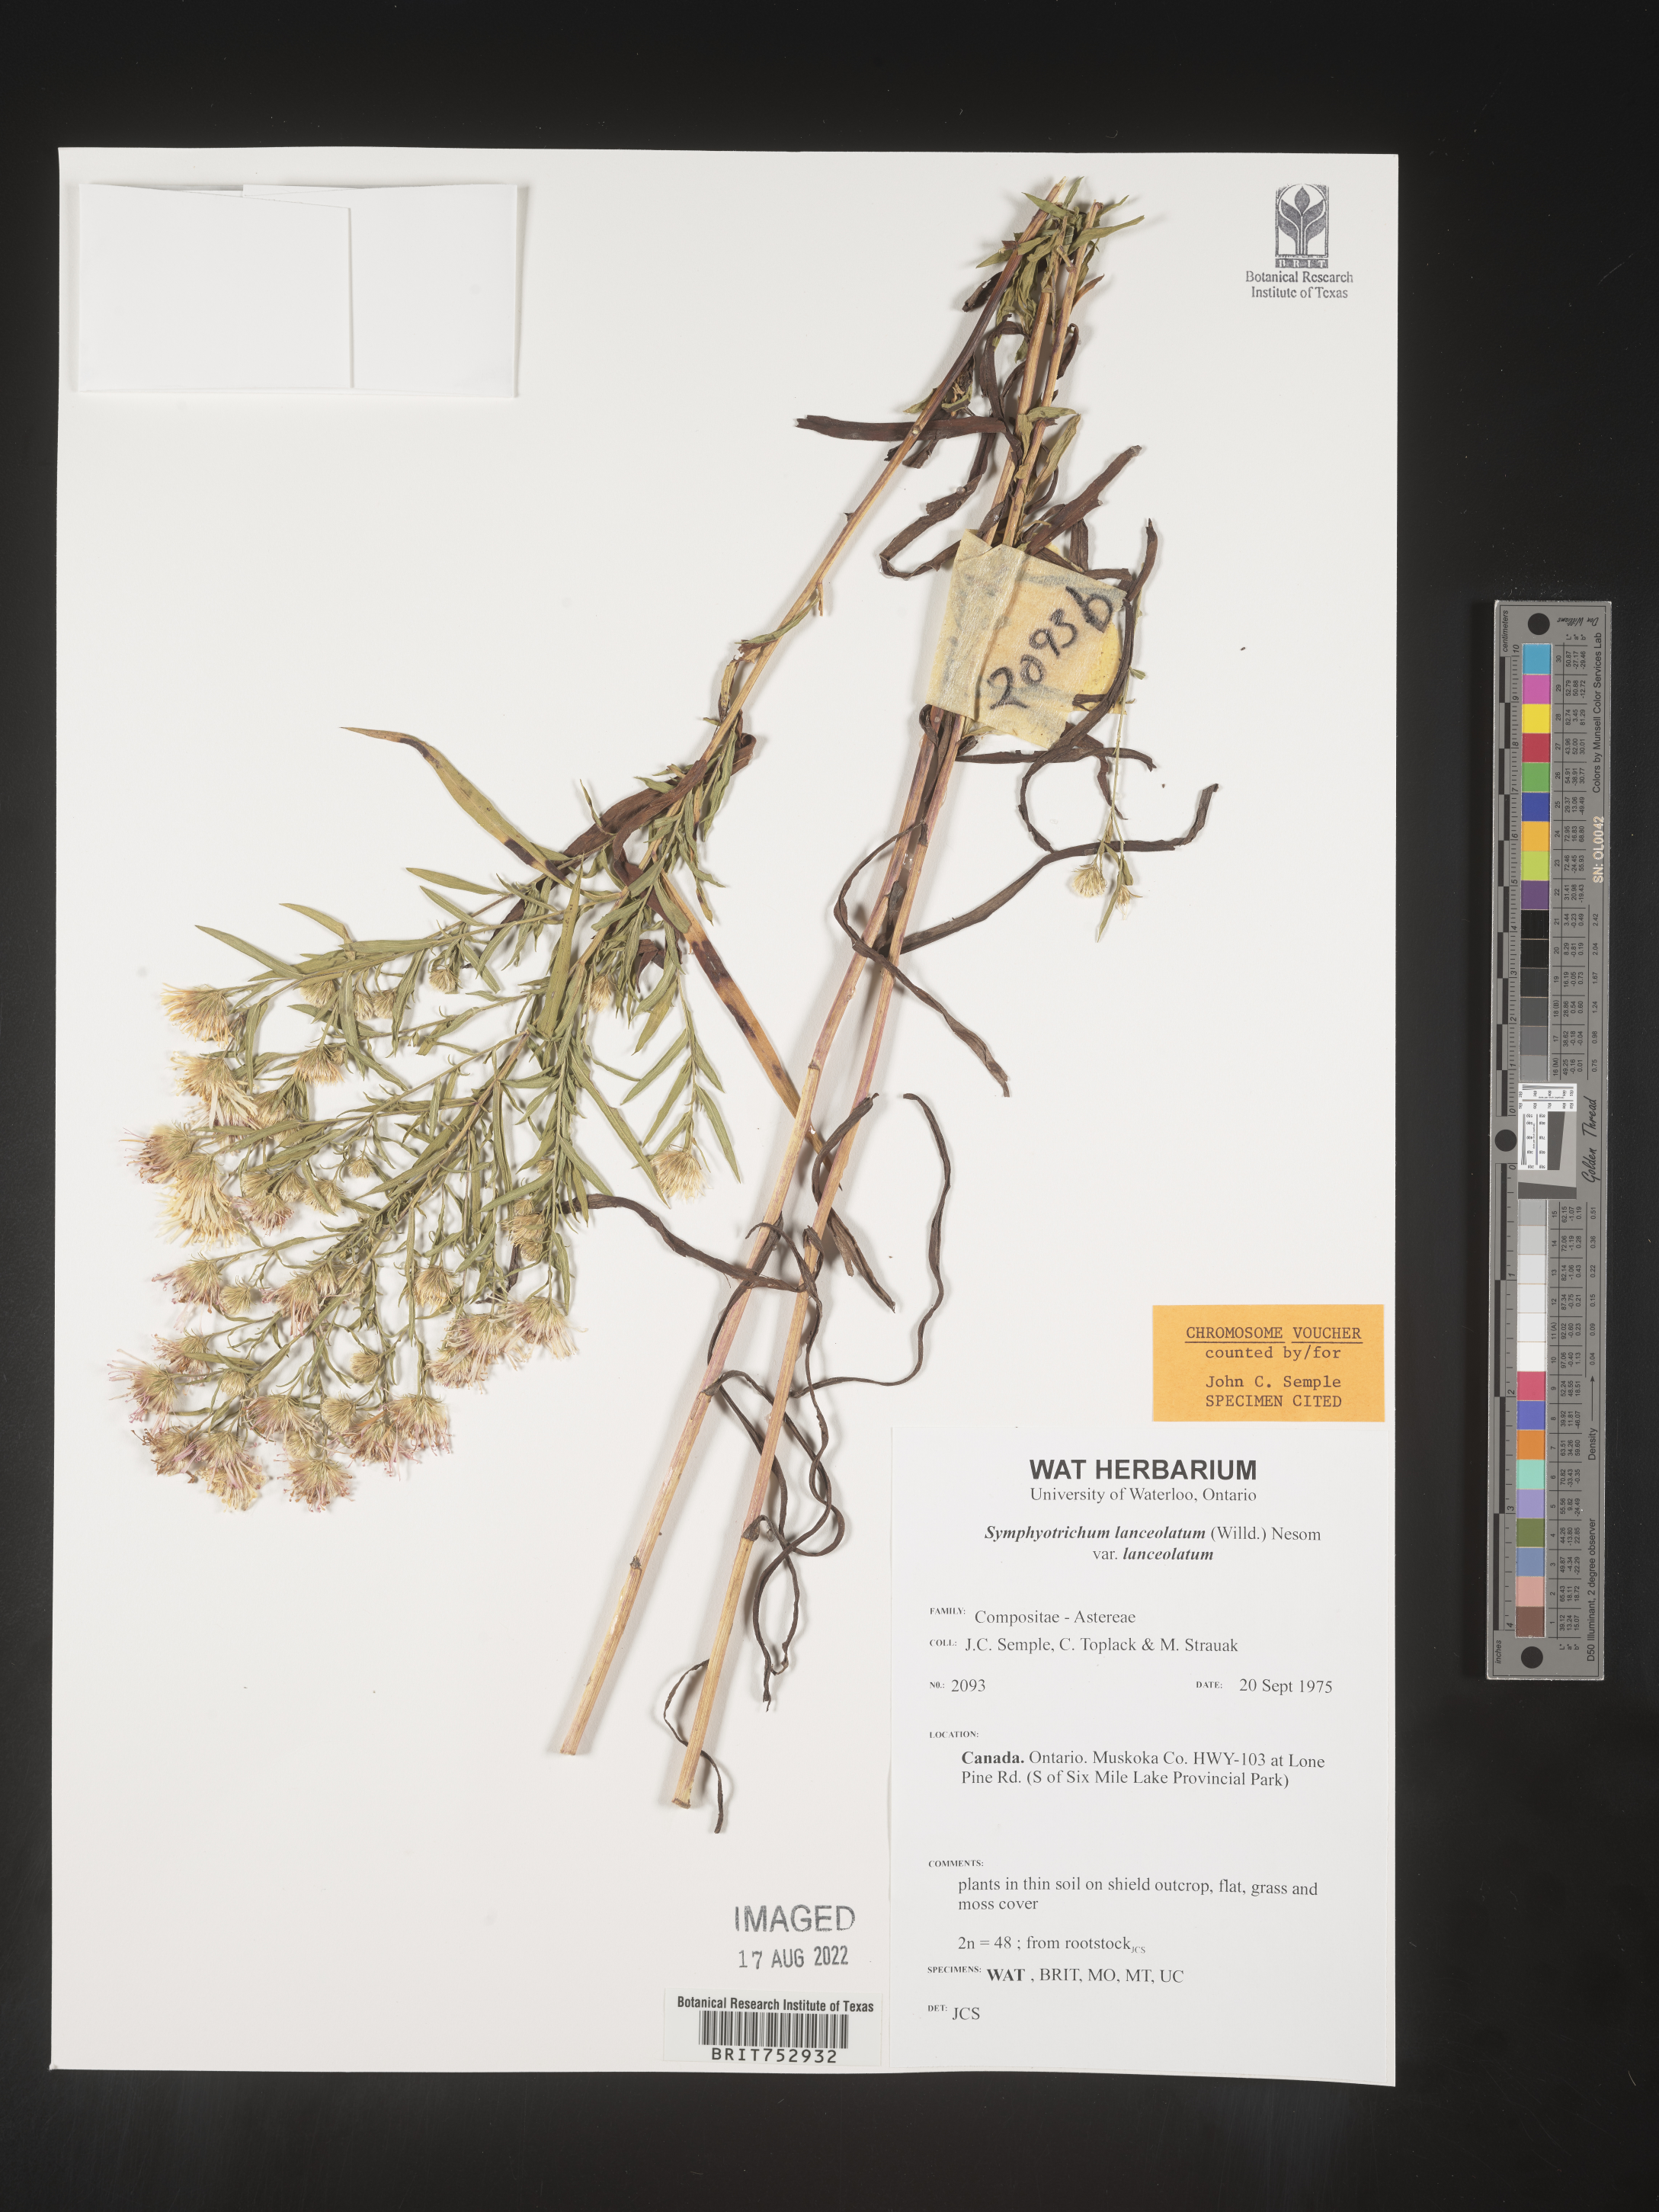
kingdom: Plantae
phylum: Tracheophyta
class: Magnoliopsida
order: Asterales
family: Asteraceae
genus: Symphyotrichum
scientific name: Symphyotrichum lanceolatum
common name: Panicled aster
